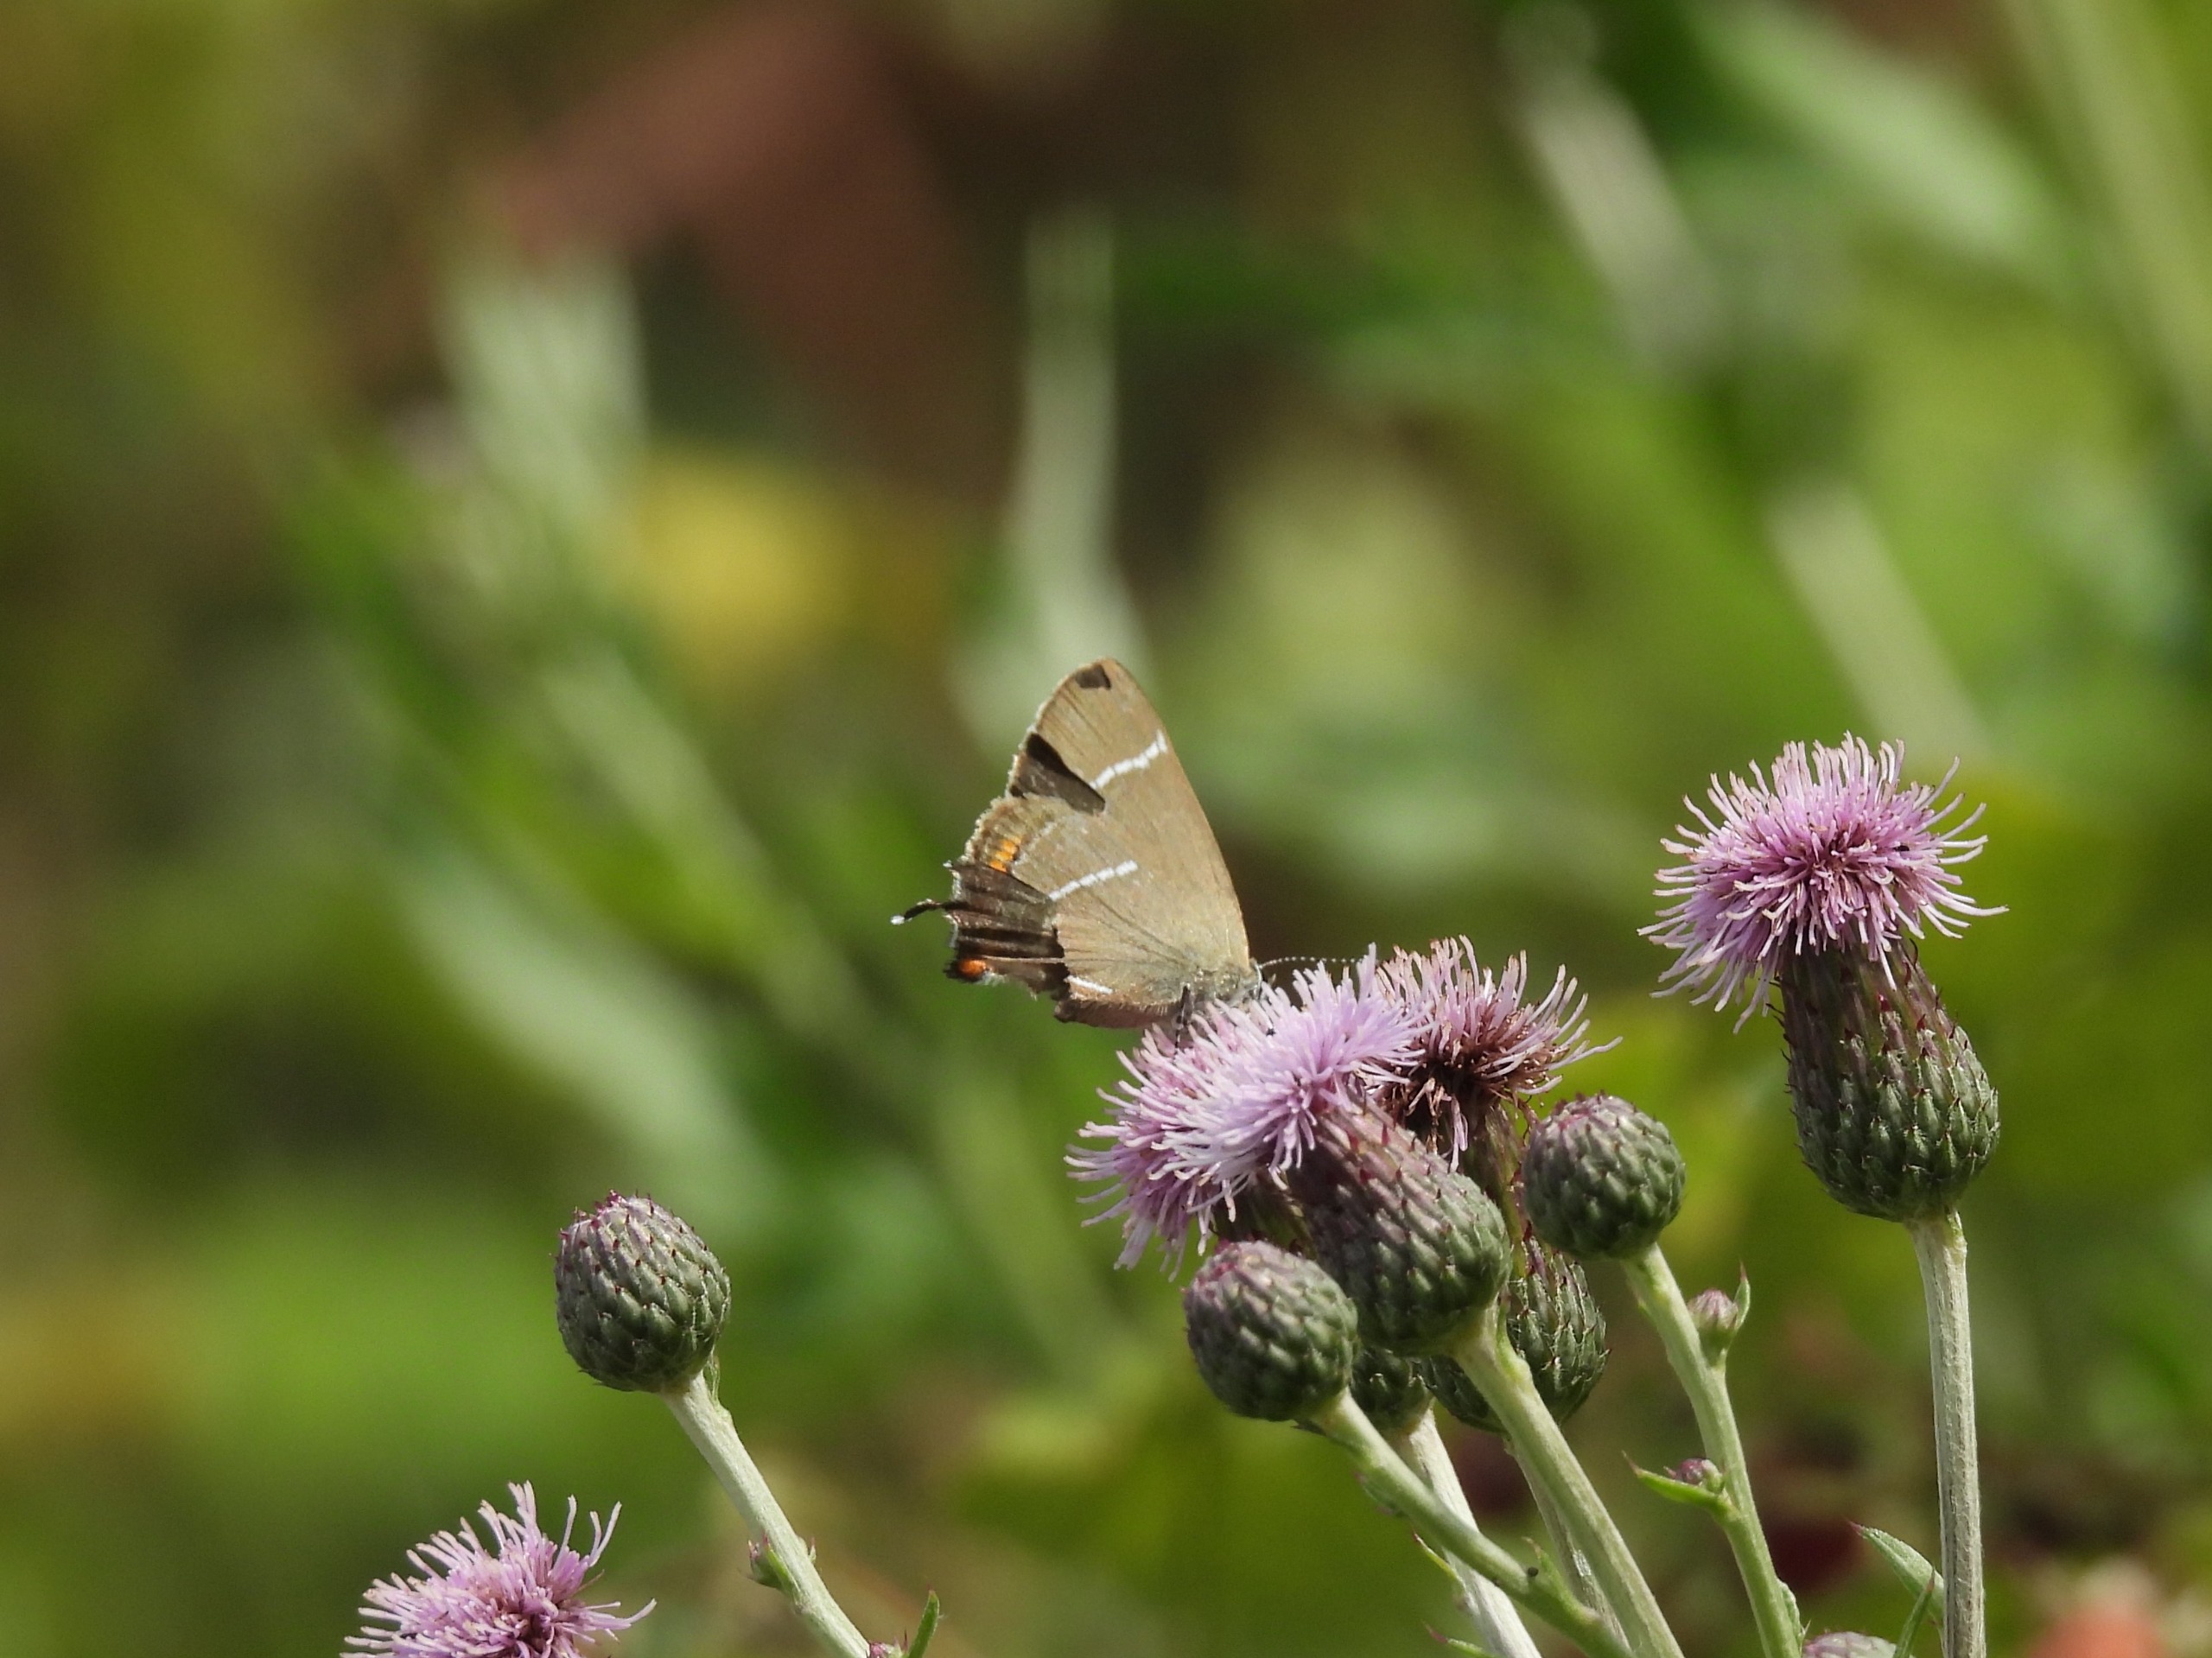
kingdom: Animalia
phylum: Arthropoda
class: Insecta
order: Lepidoptera
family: Lycaenidae
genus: Satyrium
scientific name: Satyrium w-album
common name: Det hvide W
